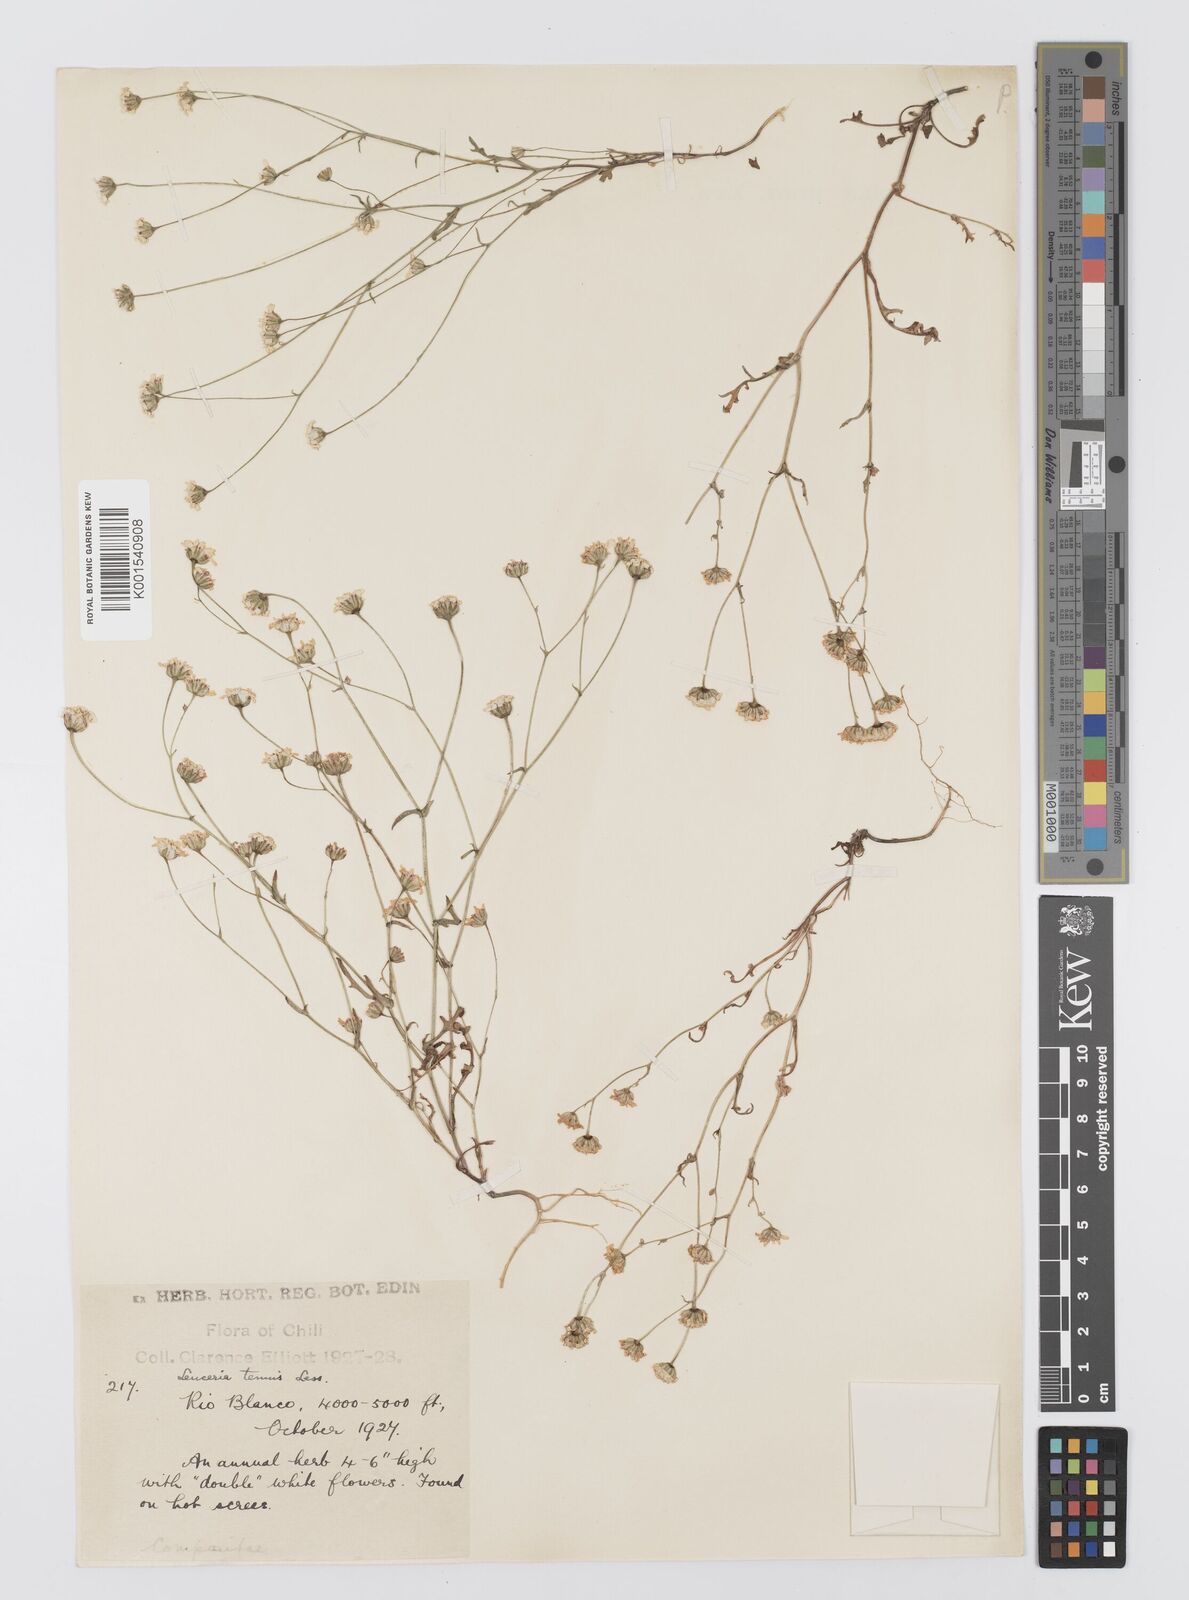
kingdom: Plantae
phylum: Tracheophyta
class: Magnoliopsida
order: Asterales
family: Asteraceae
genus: Leucheria
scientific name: Leucheria tenuis
